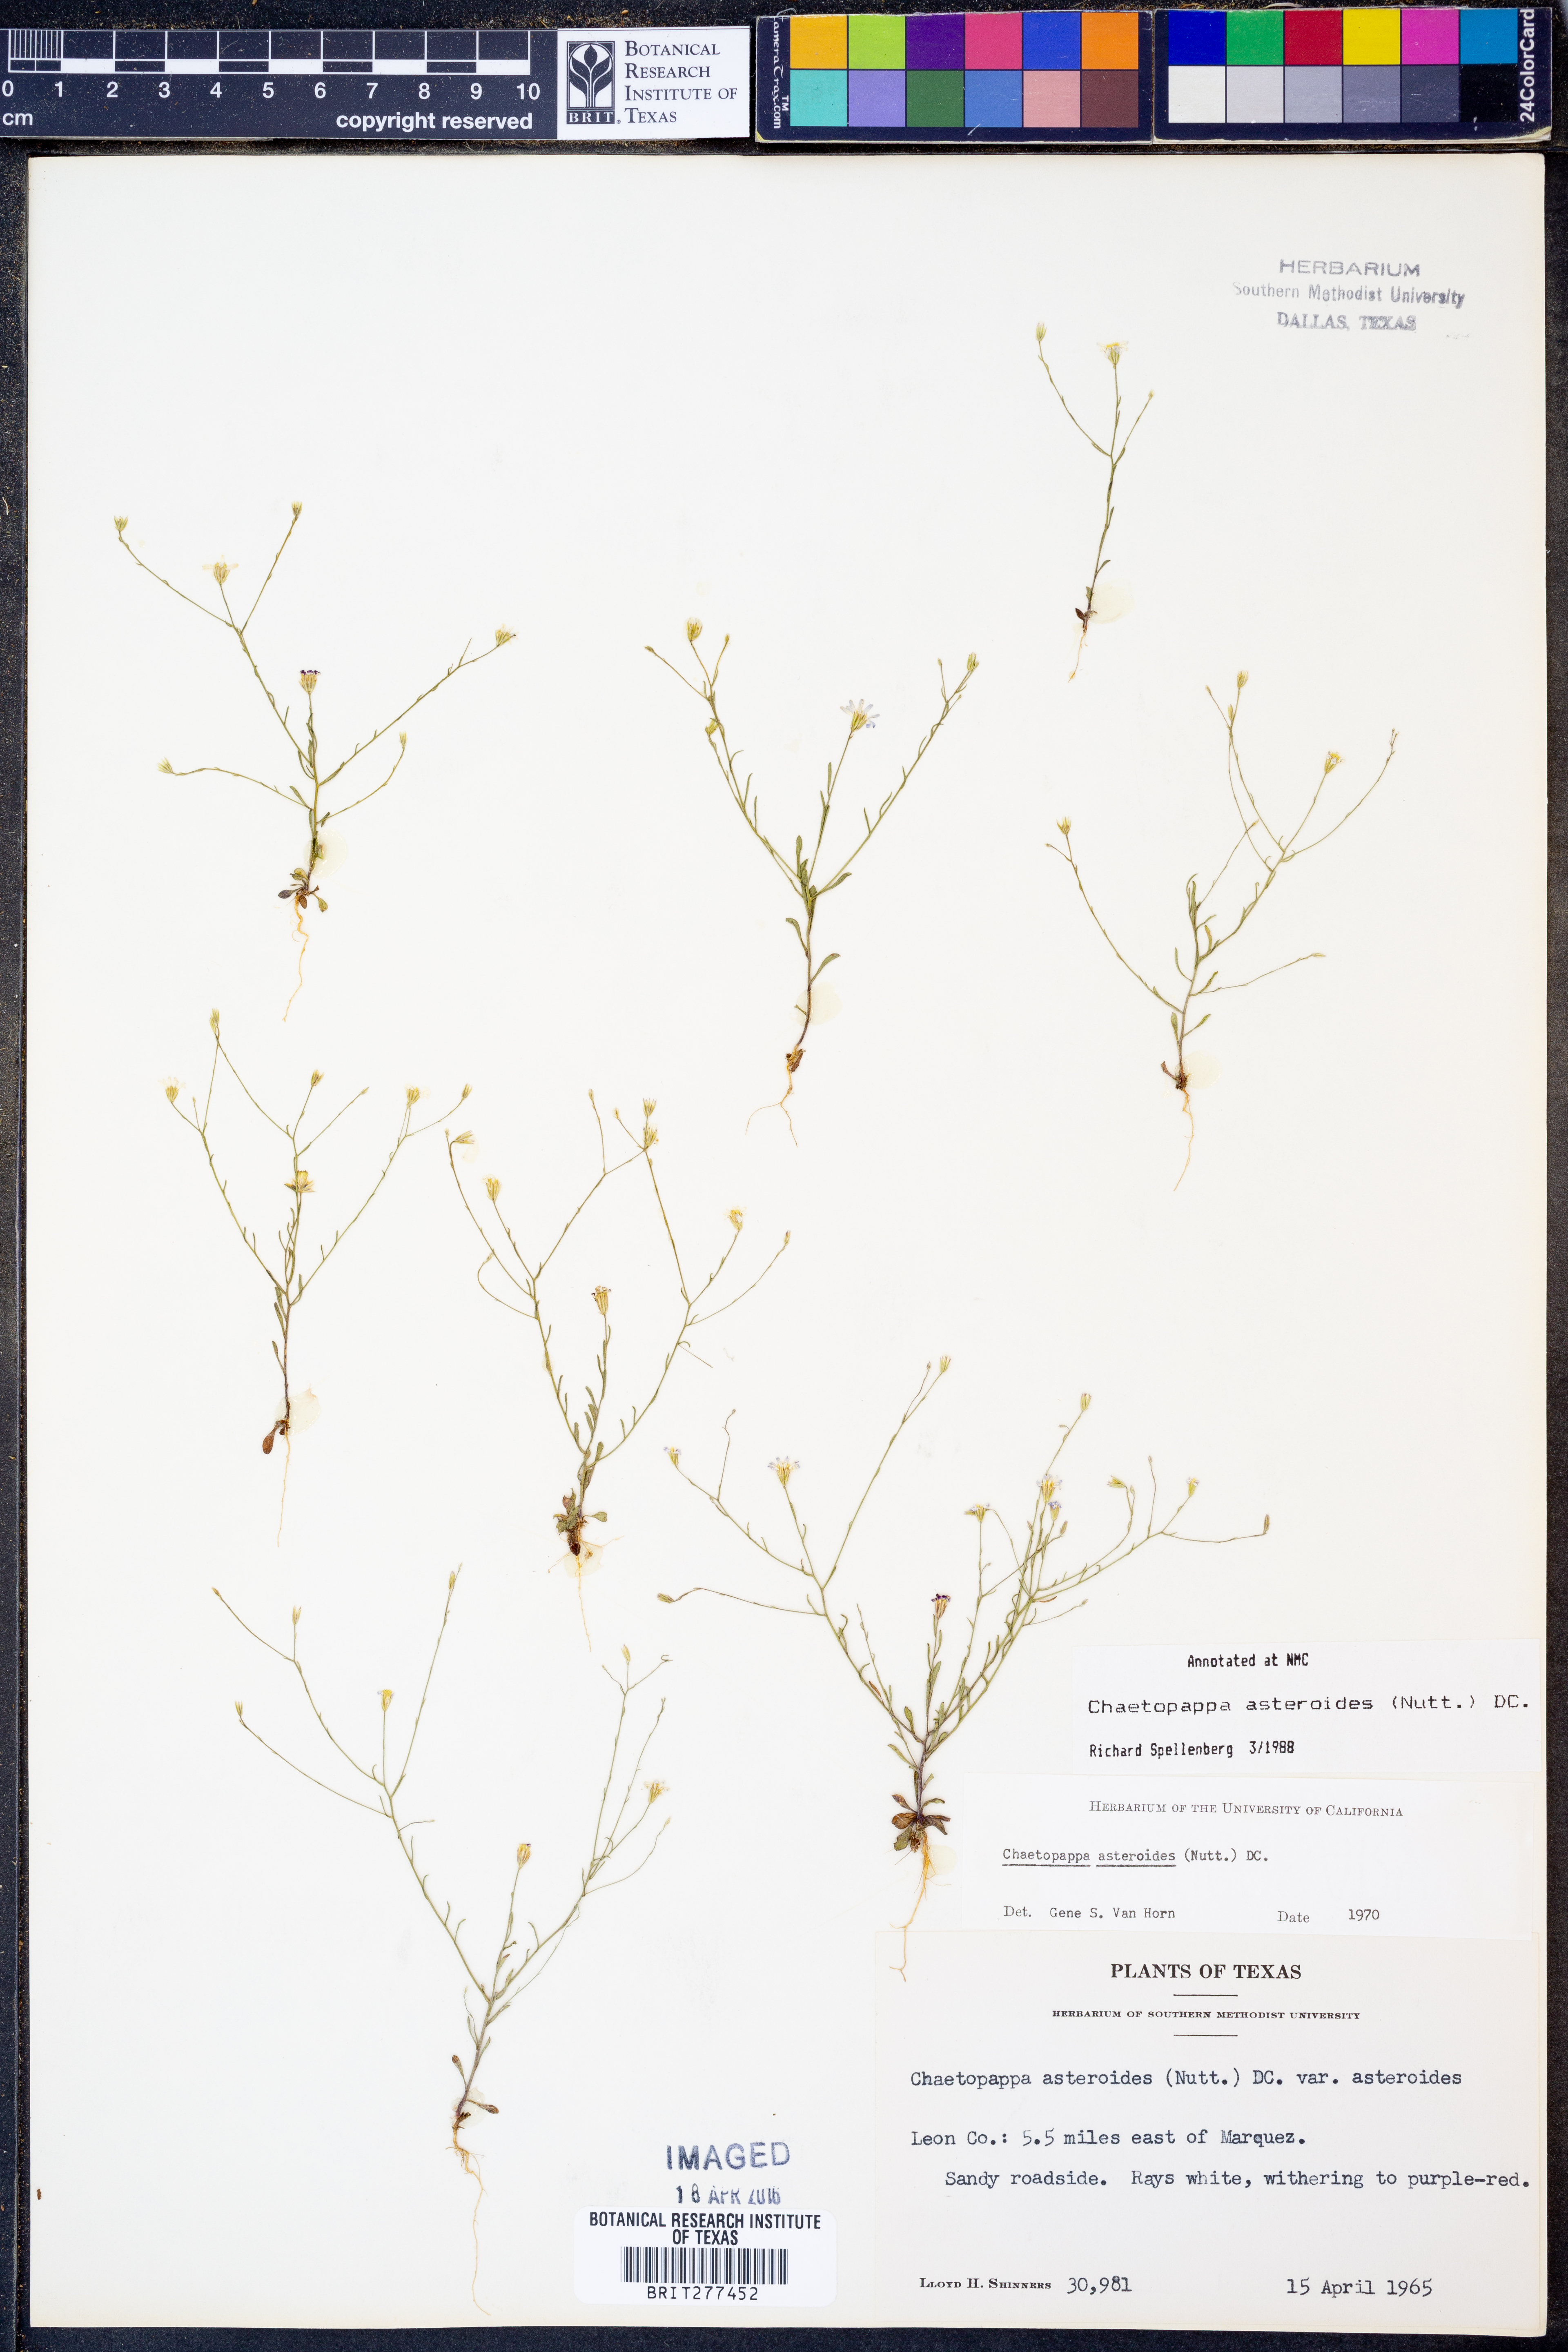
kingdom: Plantae
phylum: Tracheophyta
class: Magnoliopsida
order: Asterales
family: Asteraceae
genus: Chaetopappa
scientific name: Chaetopappa asteroides
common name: Tiny lazy daisy
